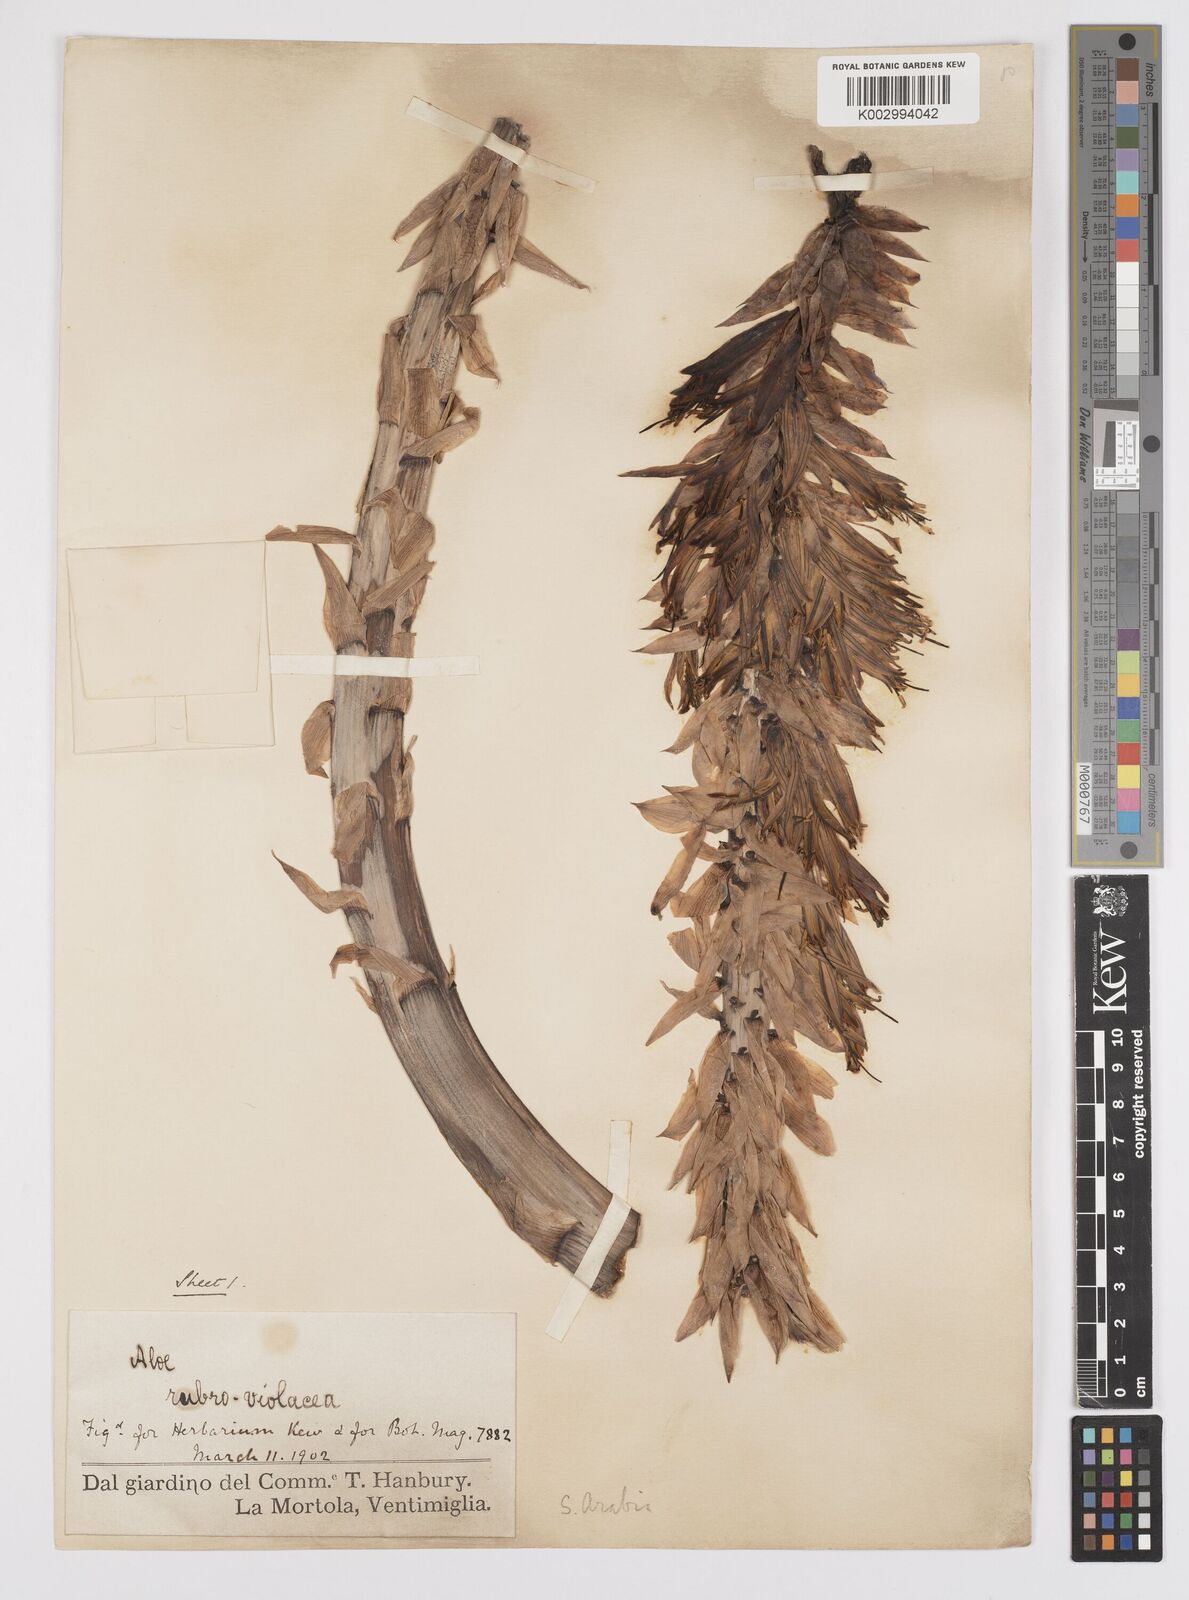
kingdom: Plantae
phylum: Tracheophyta
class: Liliopsida
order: Asparagales
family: Asphodelaceae
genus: Aloe
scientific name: Aloe rubroviolacea
